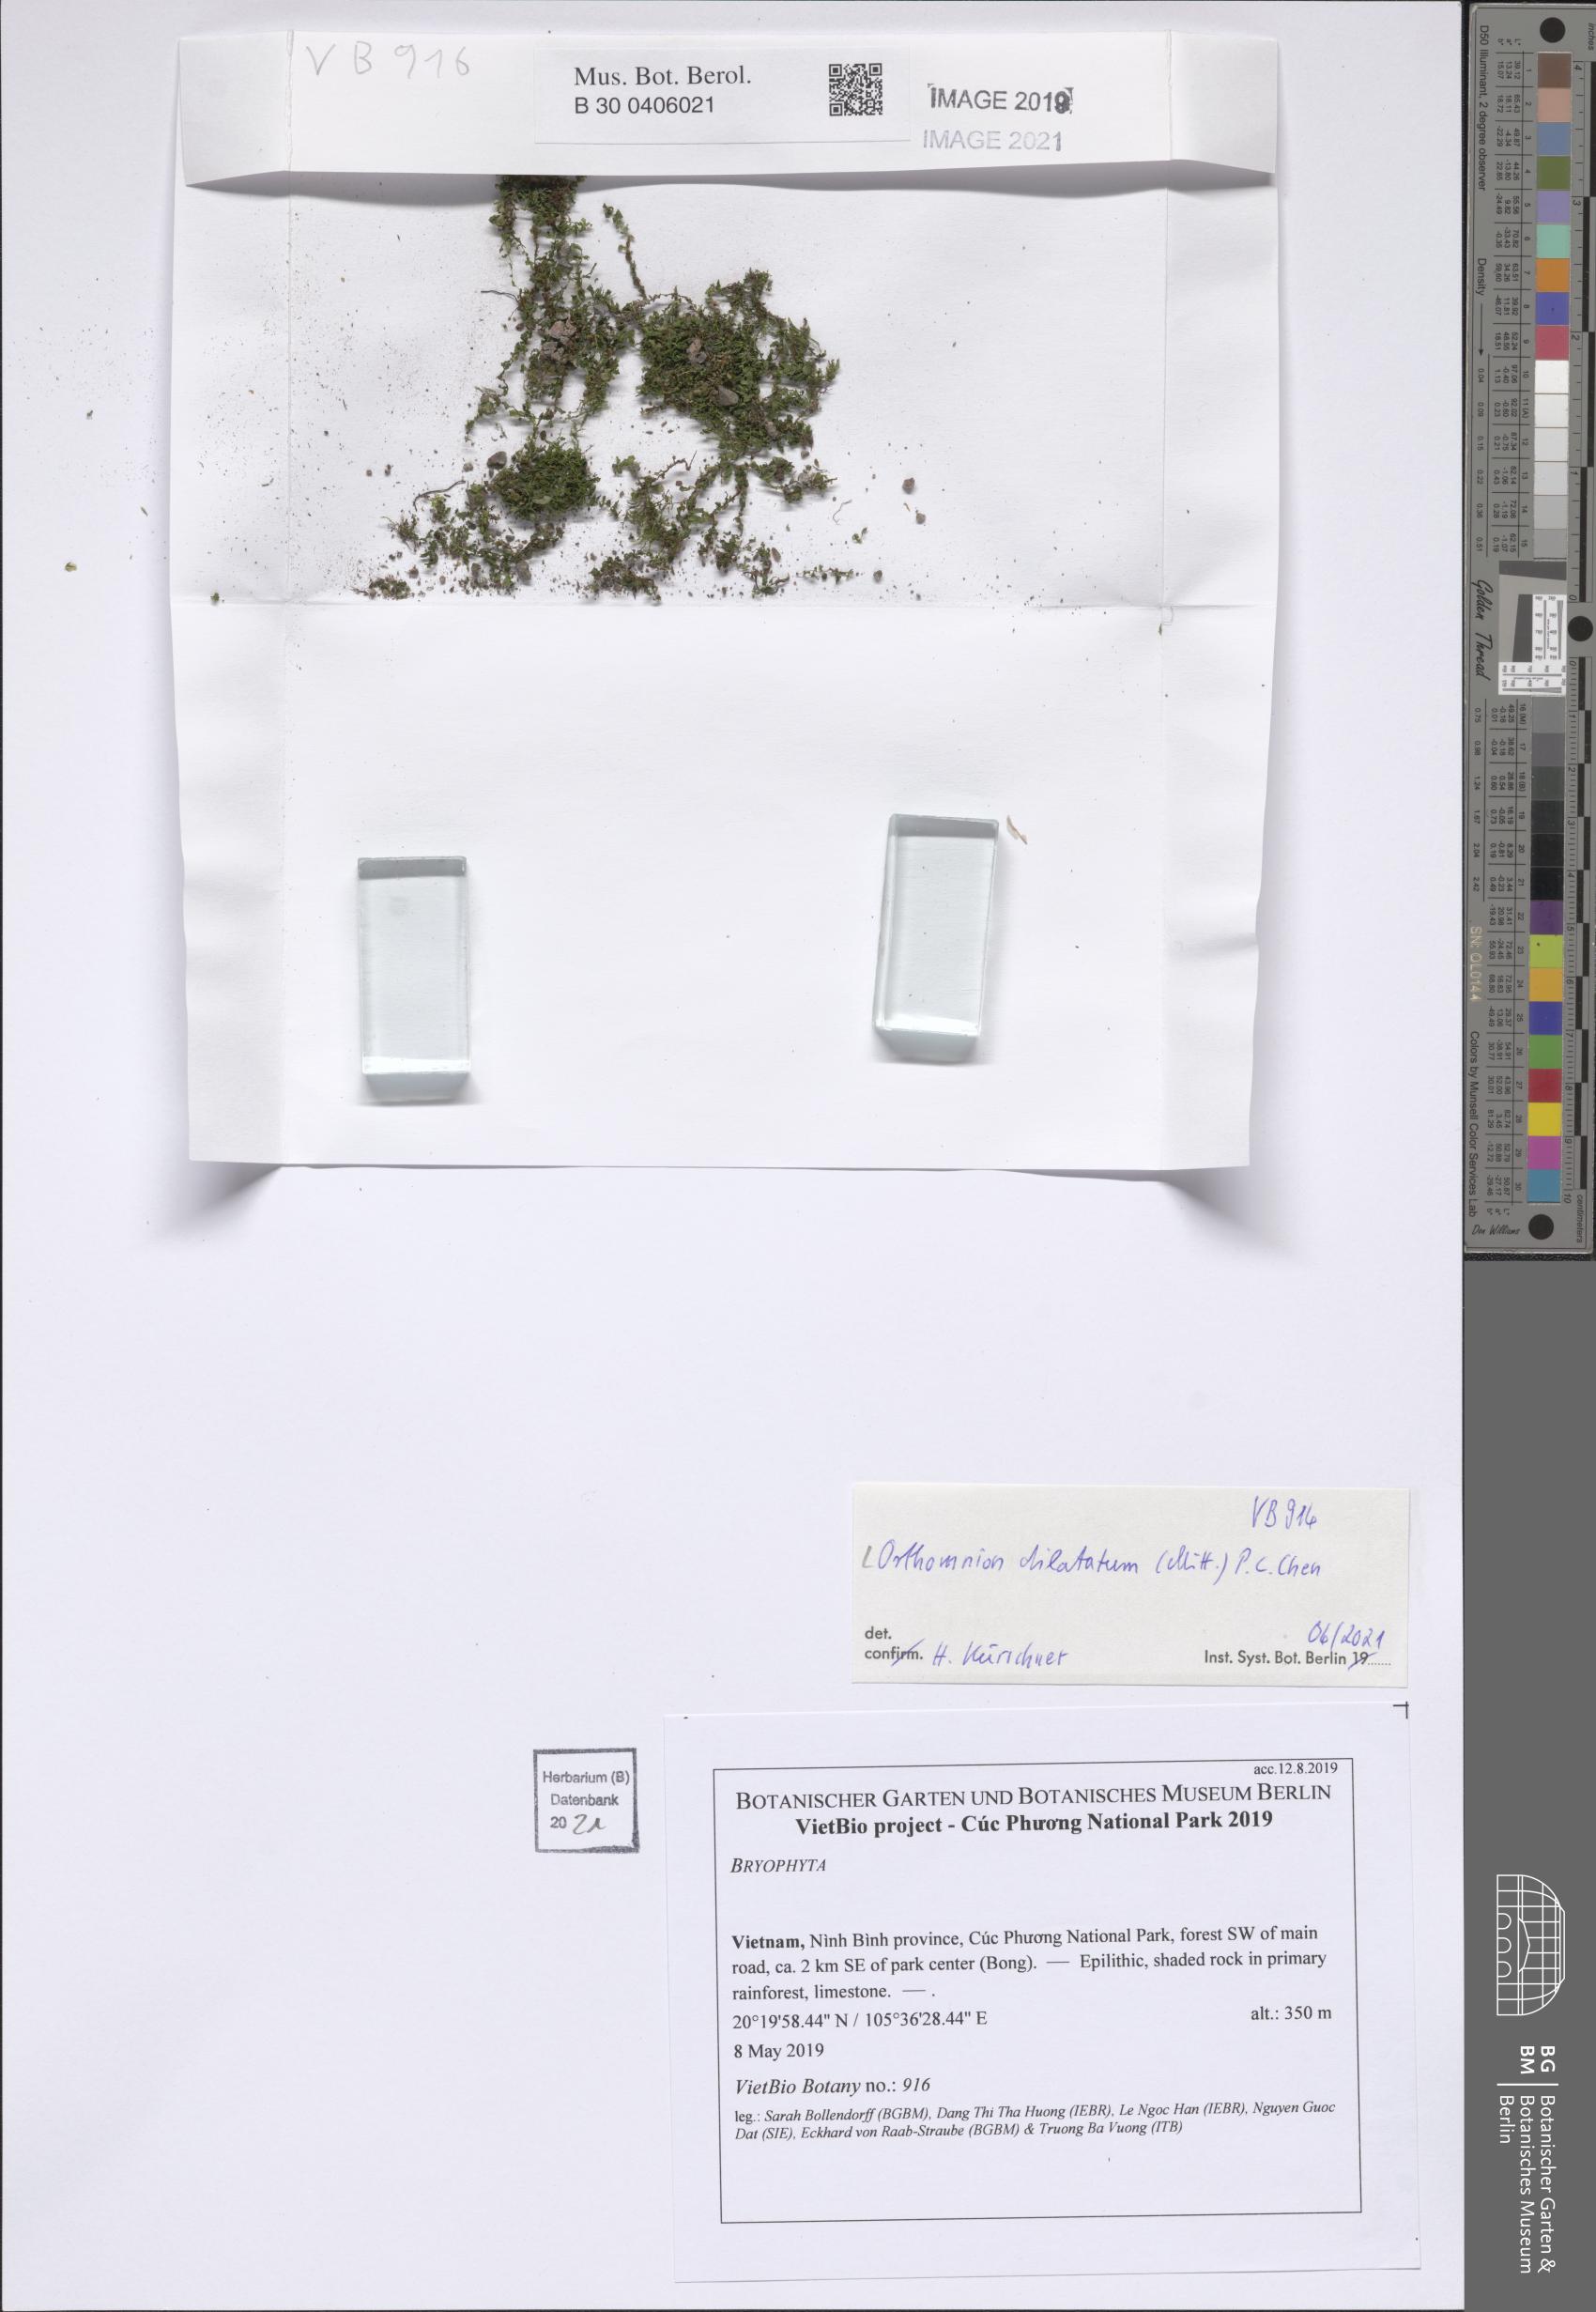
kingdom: Plantae
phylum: Bryophyta
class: Bryopsida
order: Bryales
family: Mniaceae
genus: Orthomnion
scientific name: Orthomnion dilatatum
